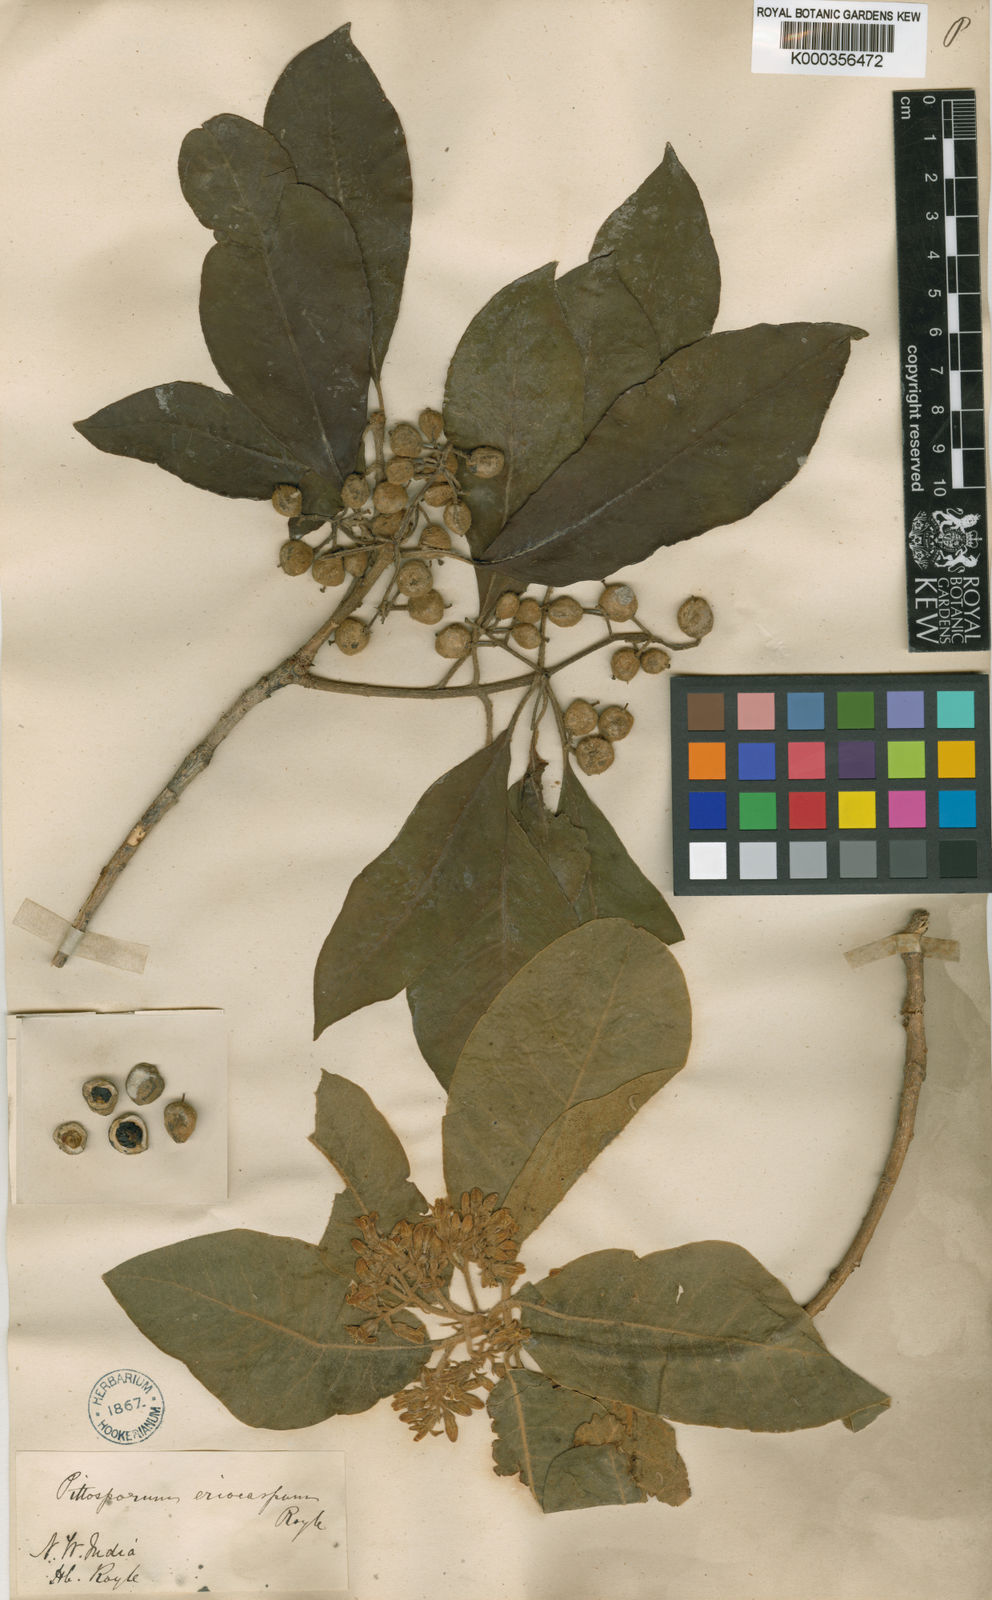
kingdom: Plantae
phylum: Tracheophyta
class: Magnoliopsida
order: Apiales
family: Pittosporaceae
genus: Pittosporum
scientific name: Pittosporum eriocarpum
